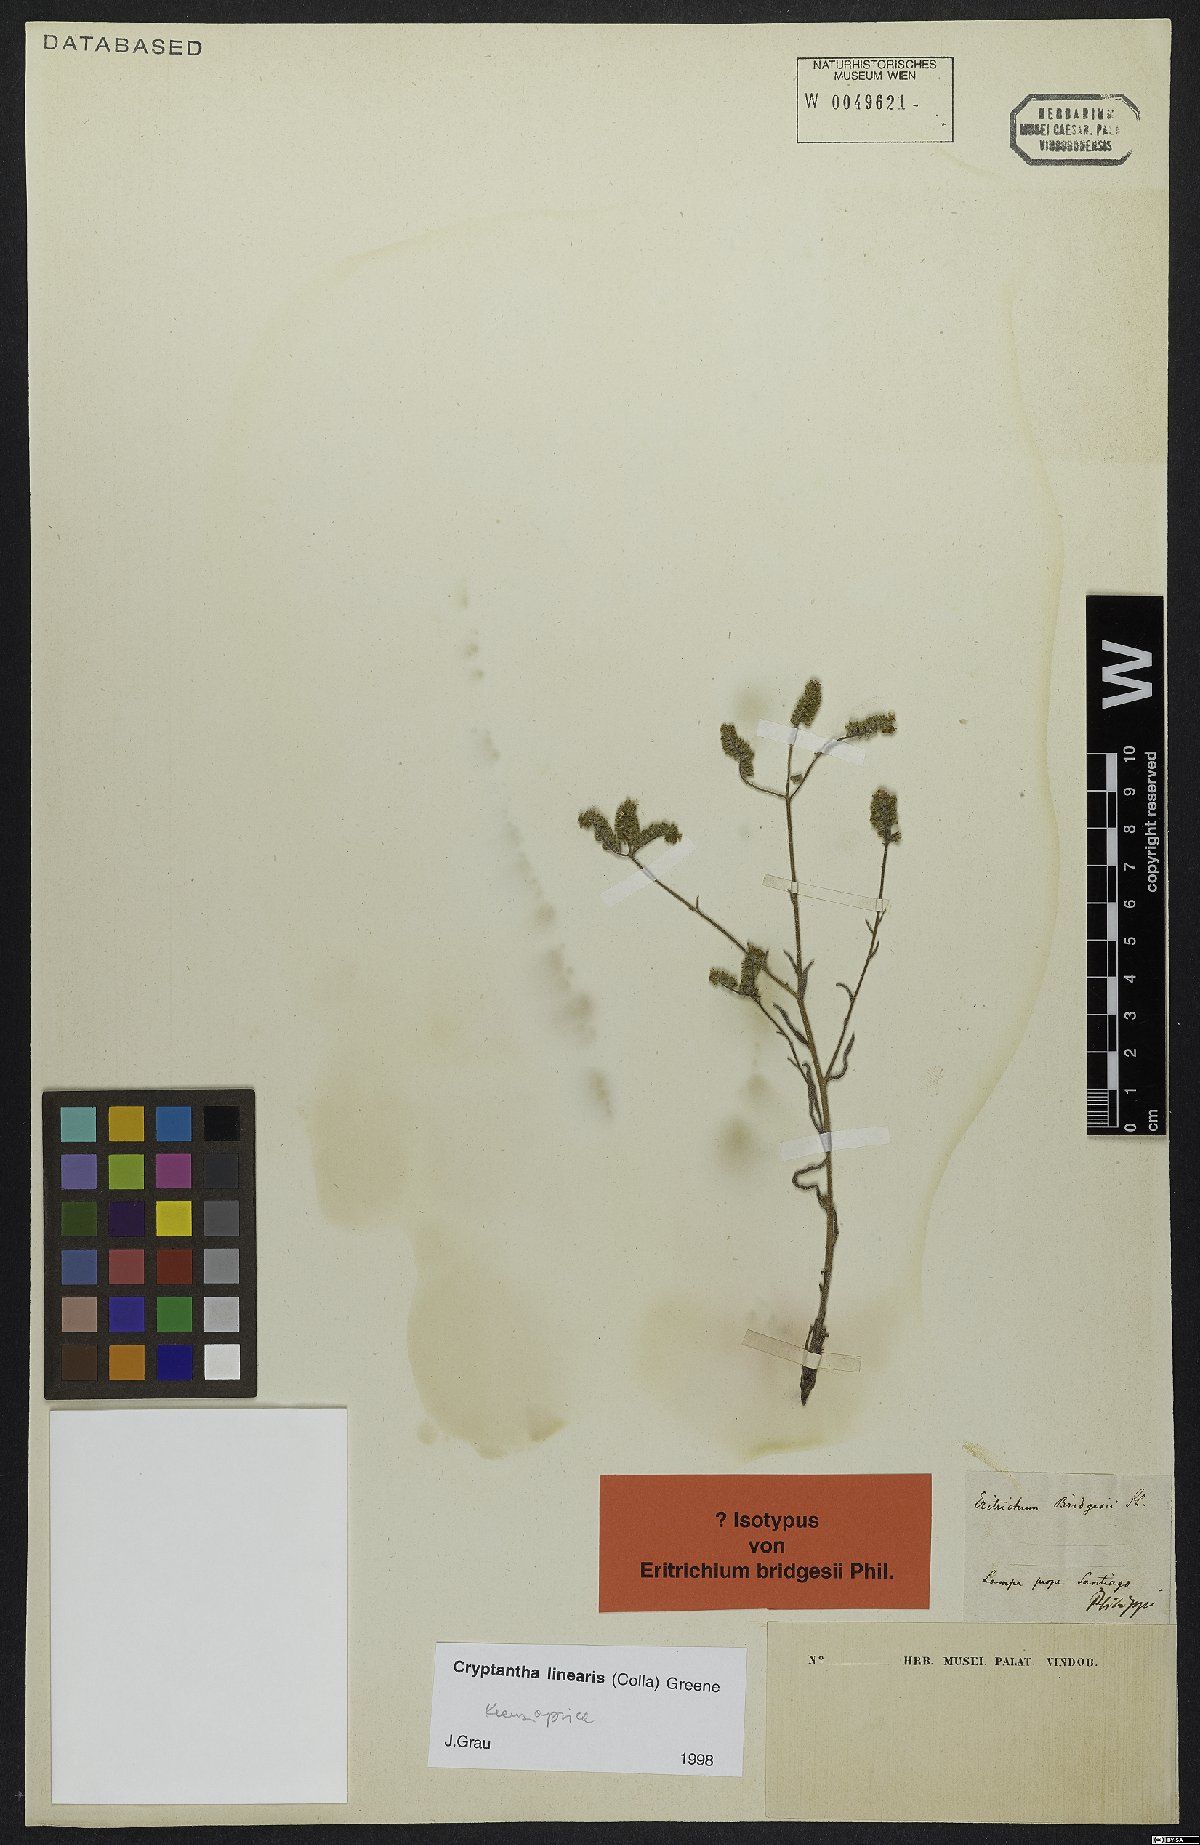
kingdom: Plantae
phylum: Tracheophyta
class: Magnoliopsida
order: Boraginales
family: Boraginaceae
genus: Cryptantha
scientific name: Cryptantha linearis
